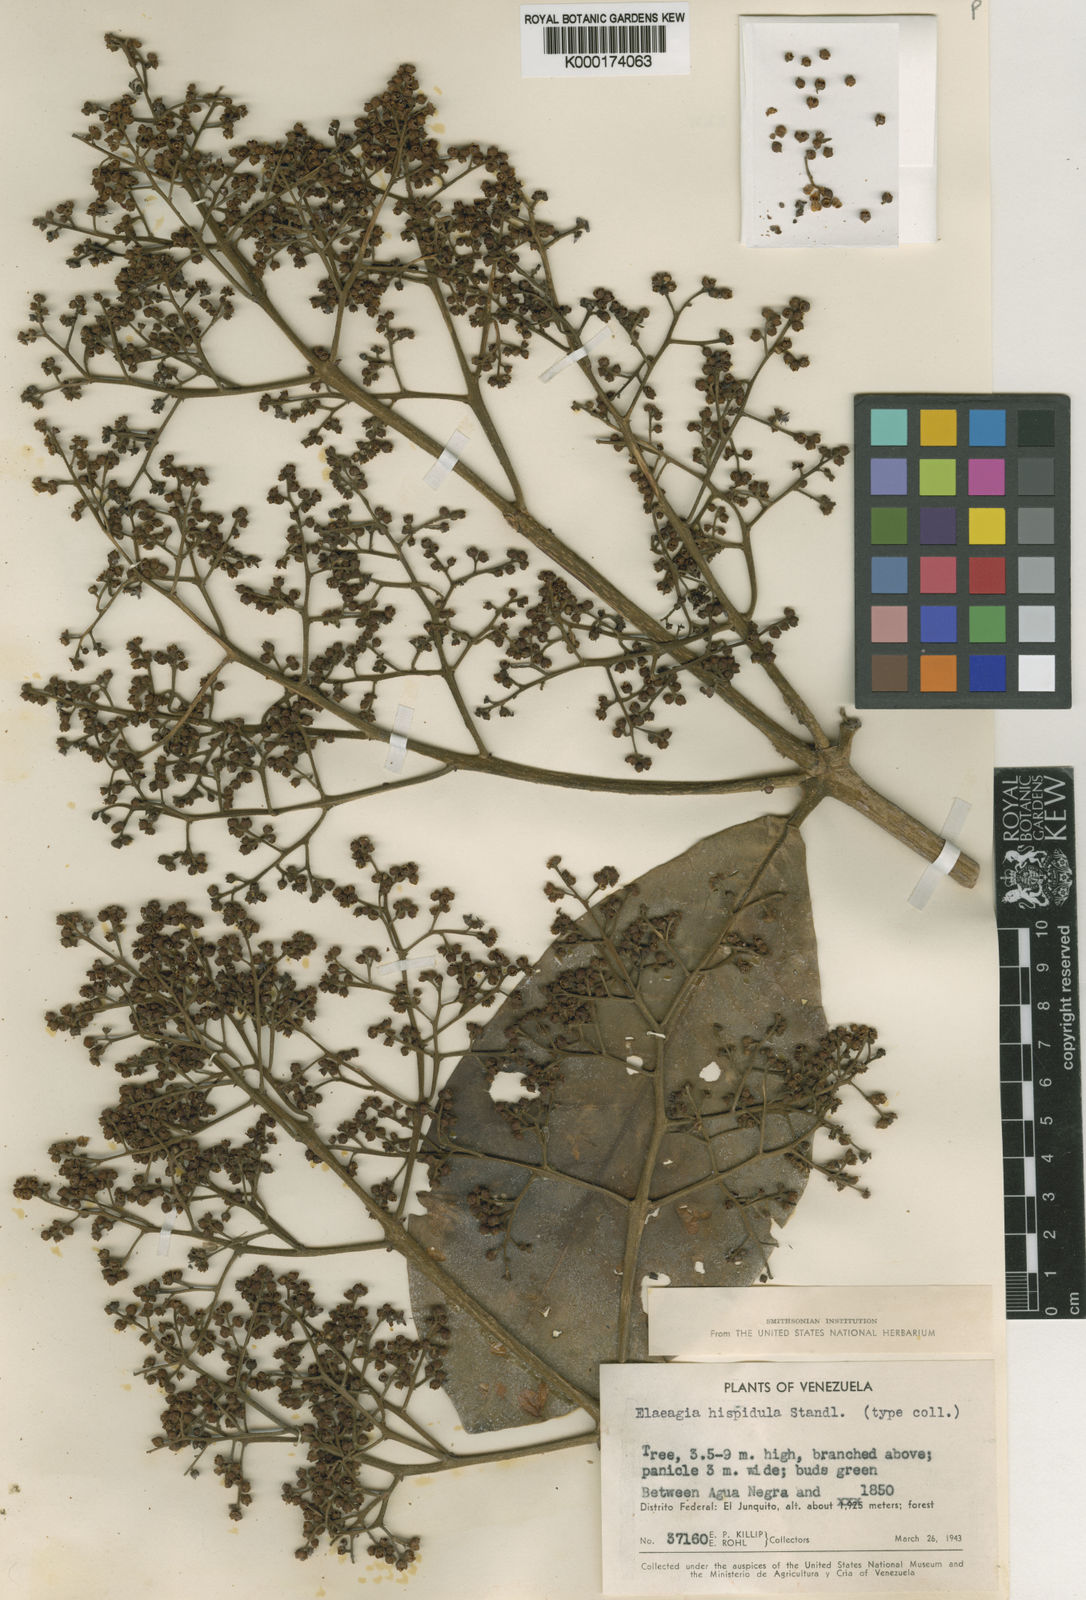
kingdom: Plantae
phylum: Tracheophyta
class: Magnoliopsida
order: Gentianales
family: Rubiaceae
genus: Elaeagia
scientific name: Elaeagia
